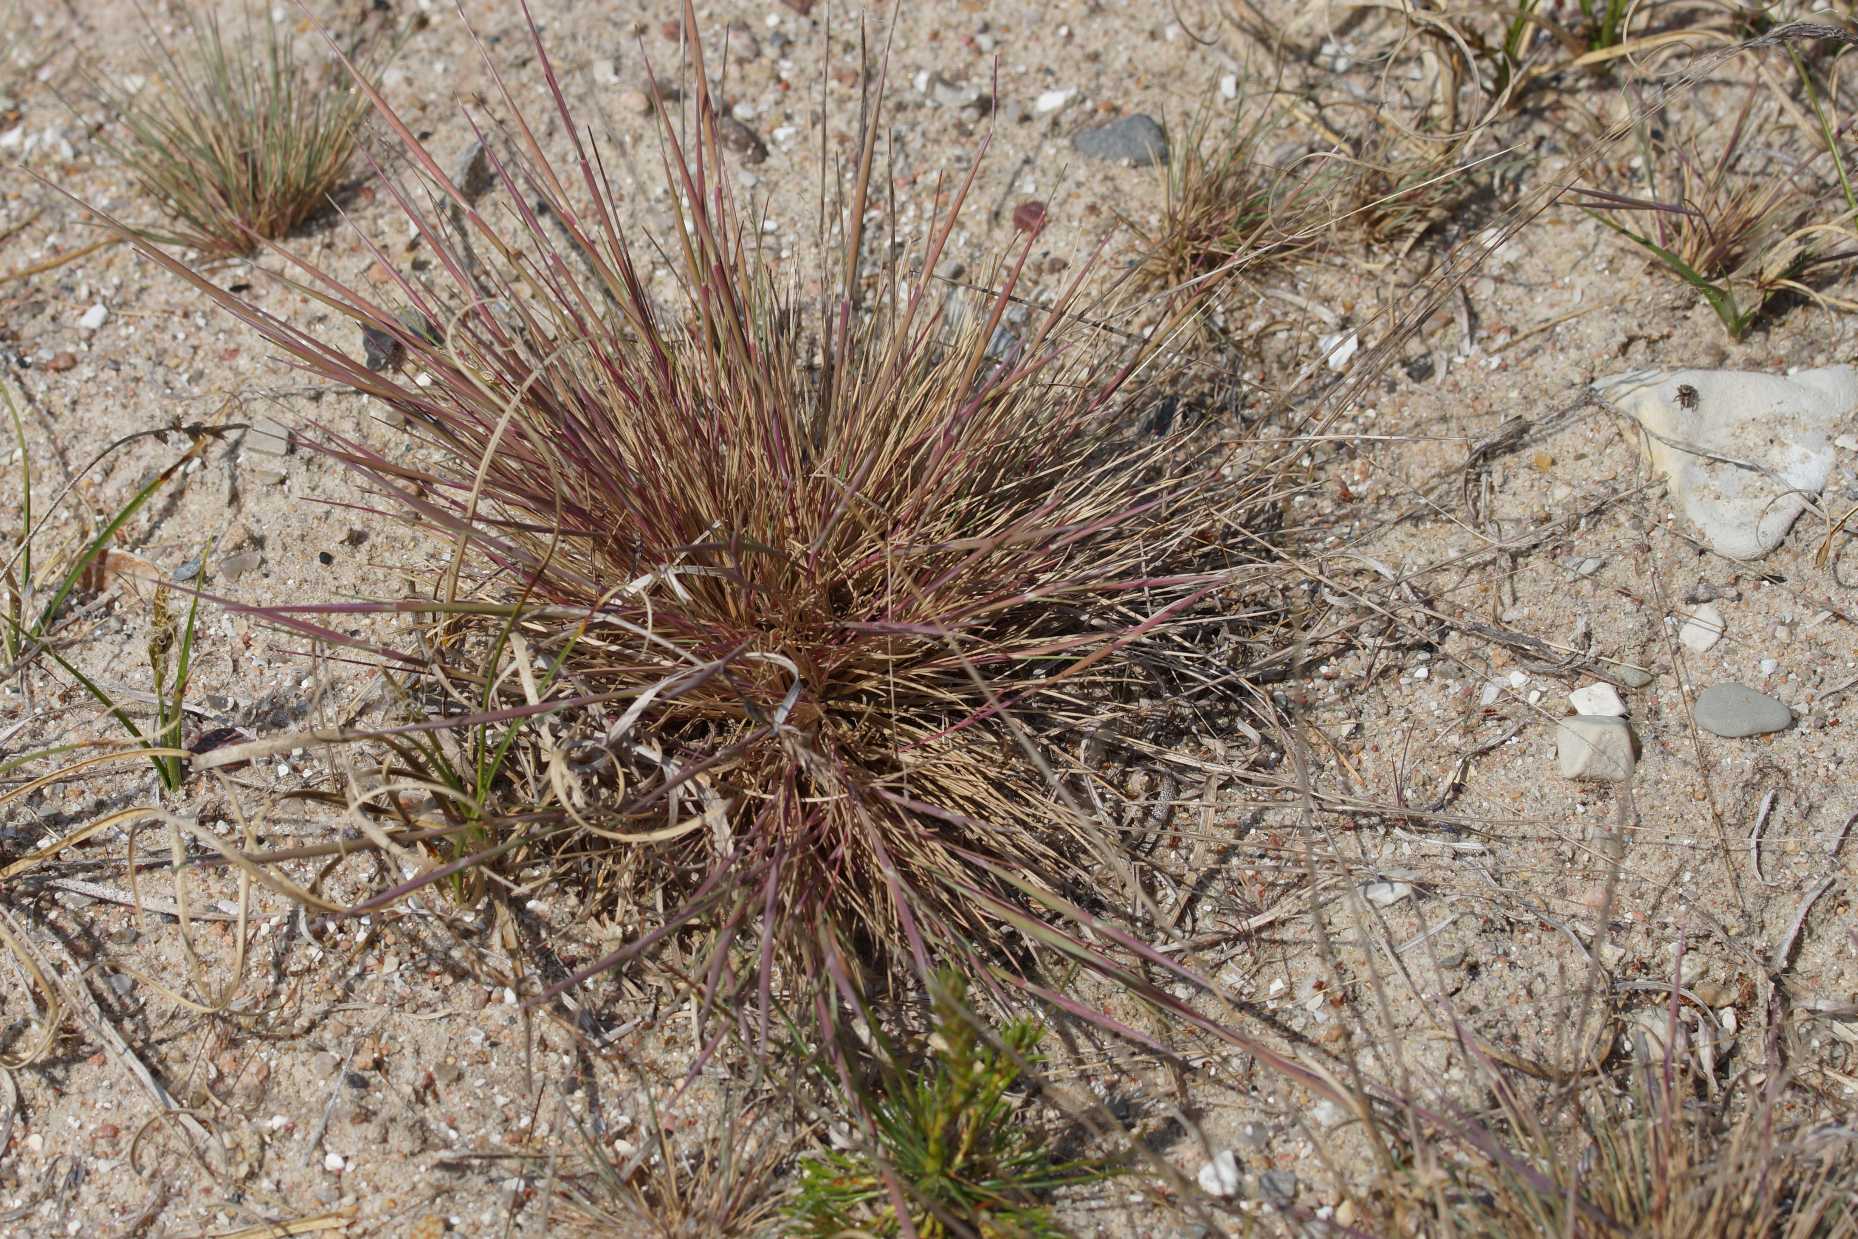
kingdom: Plantae
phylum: Tracheophyta
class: Liliopsida
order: Poales
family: Poaceae
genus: Corynephorus
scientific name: Corynephorus canescens
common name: Sandskæg
